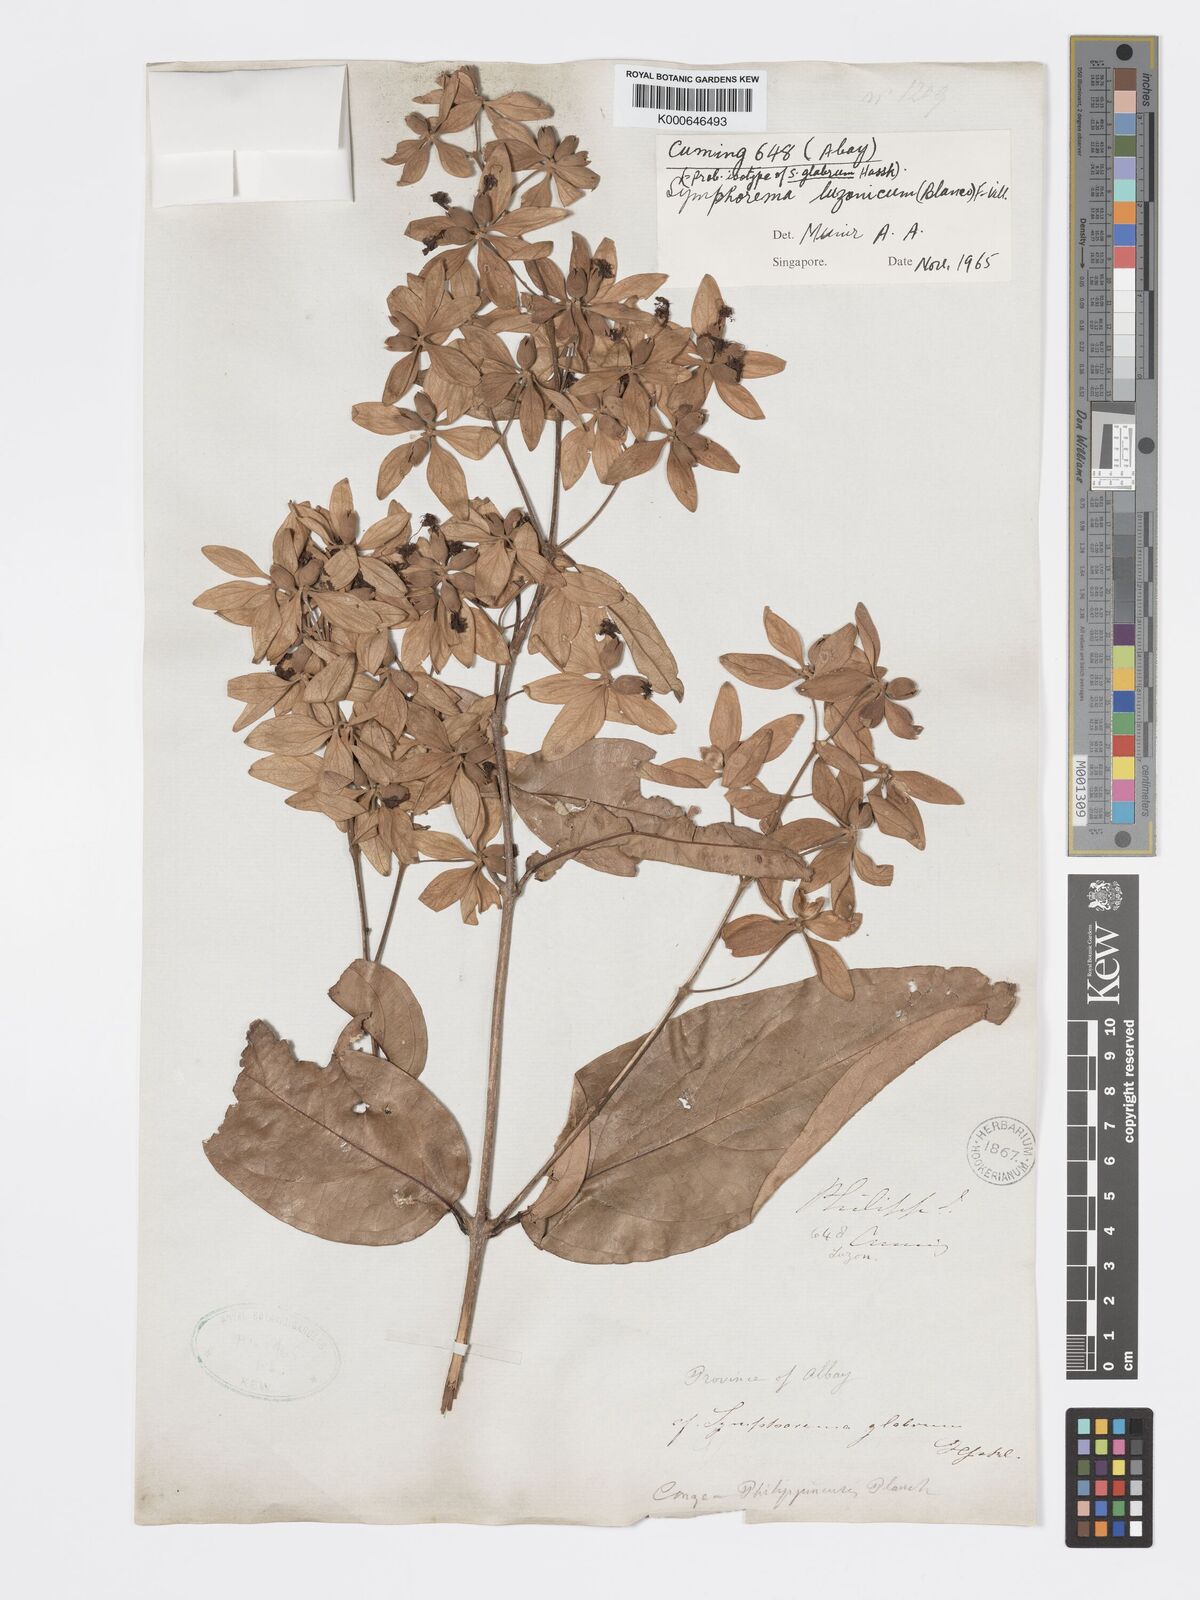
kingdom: Plantae
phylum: Tracheophyta
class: Magnoliopsida
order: Lamiales
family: Lamiaceae
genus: Symphorema
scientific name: Symphorema luzonicum
